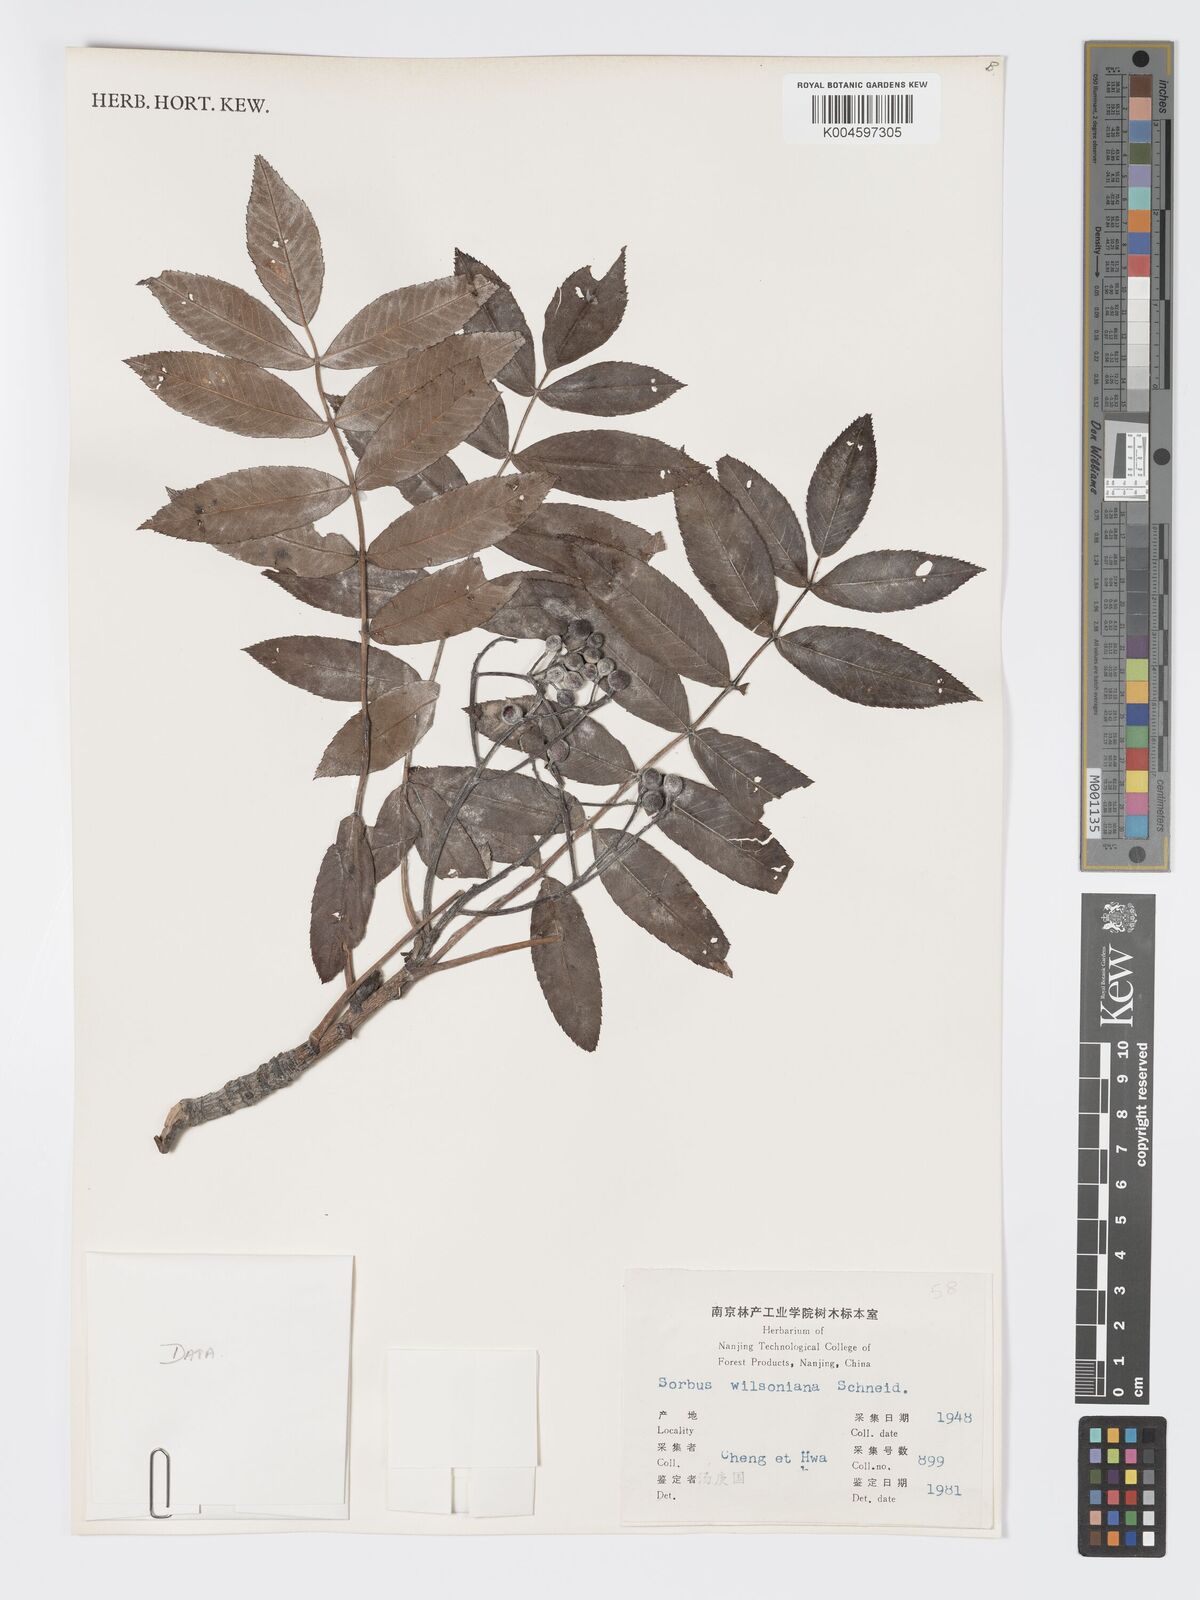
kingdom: Plantae
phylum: Tracheophyta
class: Magnoliopsida
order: Rosales
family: Rosaceae
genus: Sorbus
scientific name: Sorbus wilsoniana
